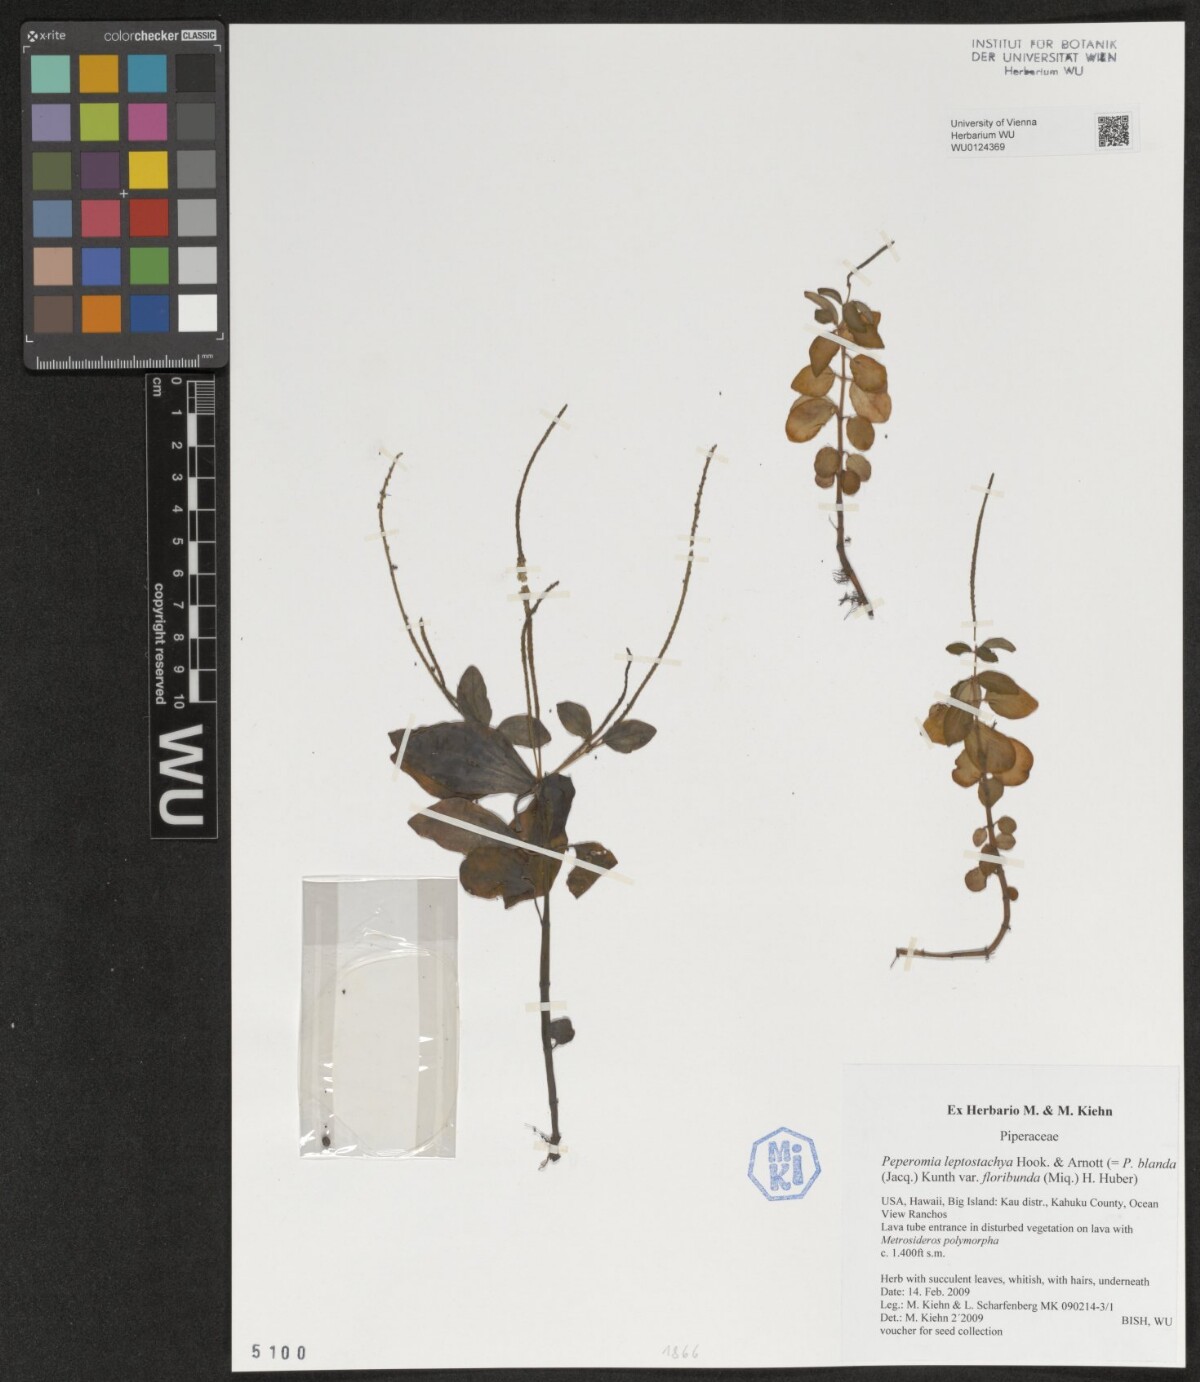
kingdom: Plantae
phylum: Tracheophyta
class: Magnoliopsida
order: Piperales
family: Piperaceae
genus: Peperomia
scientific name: Peperomia leptostachya
